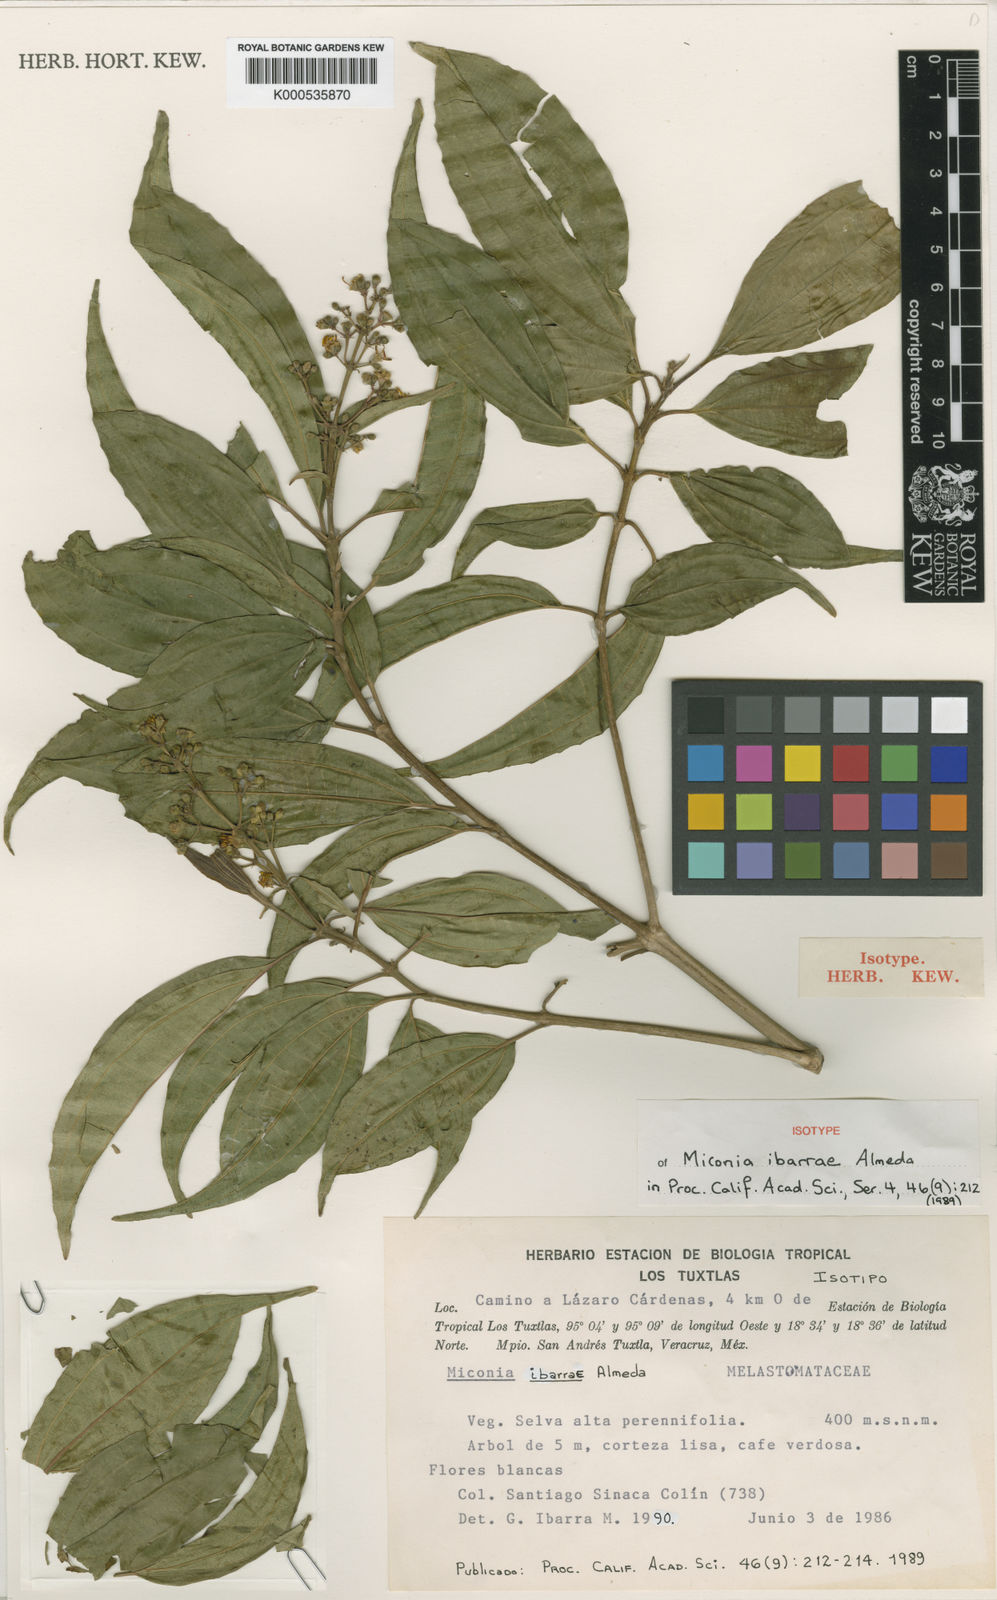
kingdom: Plantae
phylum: Tracheophyta
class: Magnoliopsida
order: Myrtales
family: Melastomataceae
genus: Miconia
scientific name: Miconia ibarrae
